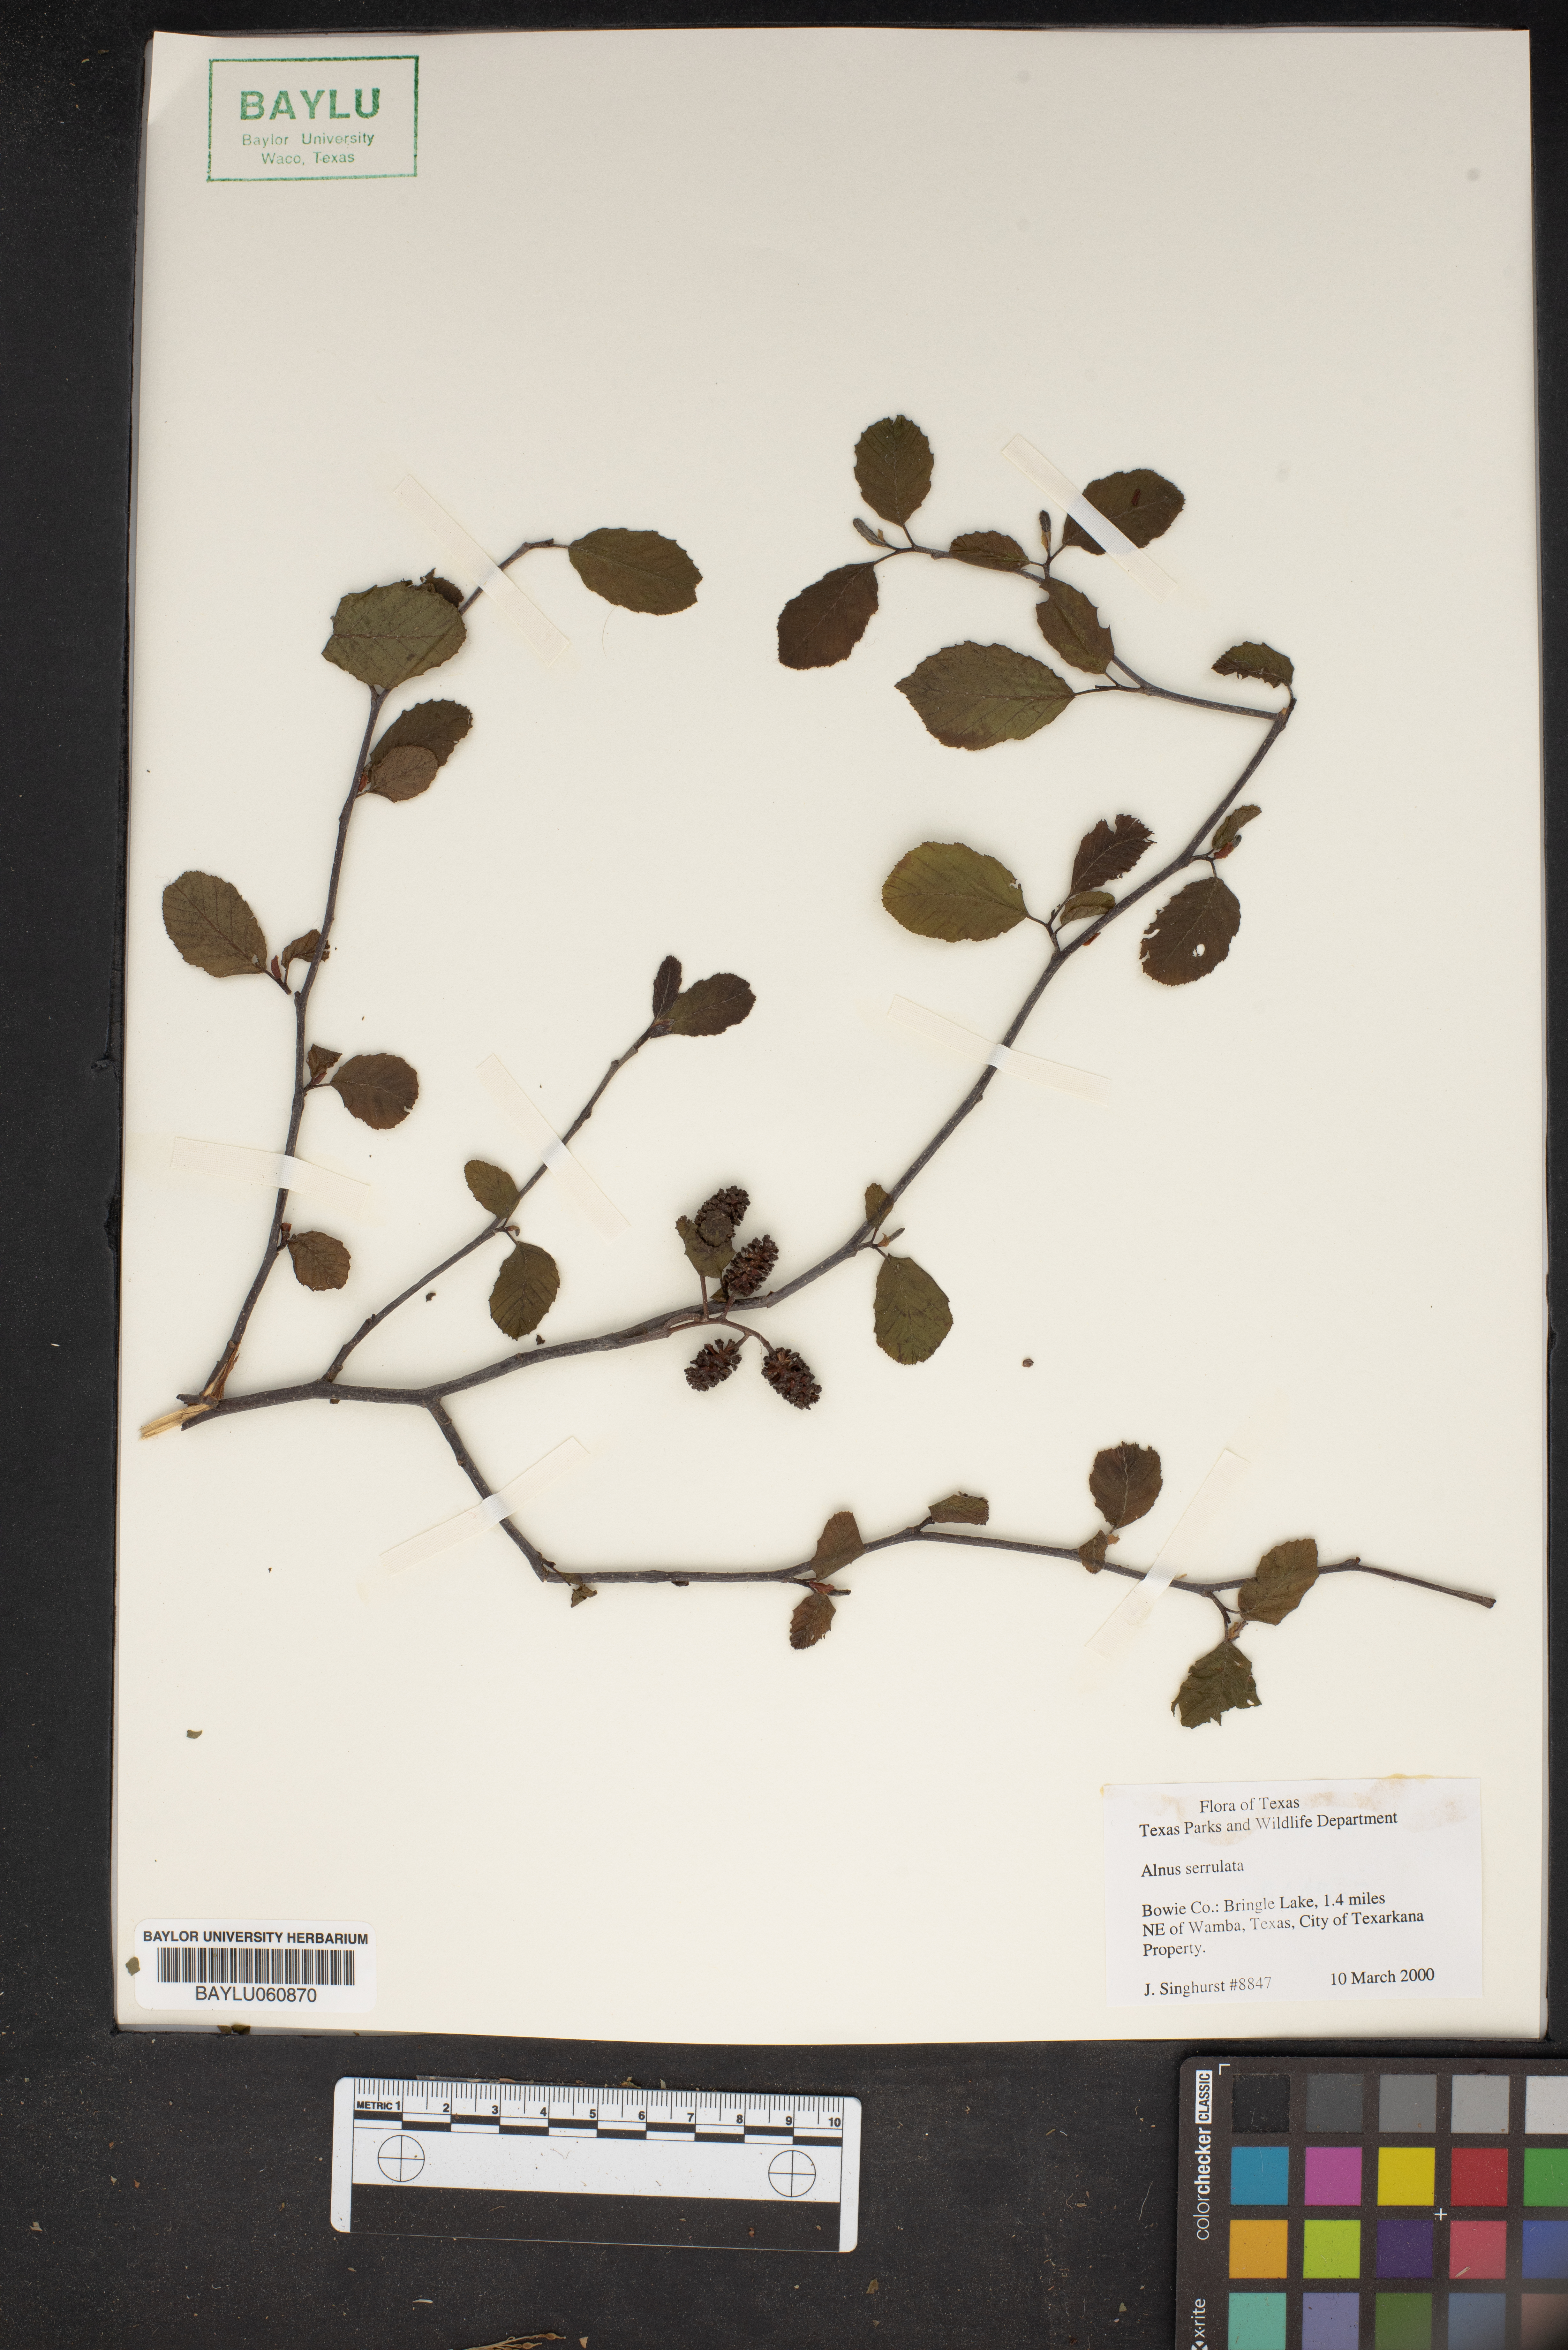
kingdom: Plantae
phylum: Tracheophyta
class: Magnoliopsida
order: Fagales
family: Betulaceae
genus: Alnus
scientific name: Alnus serrulata
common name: Hazel alder
